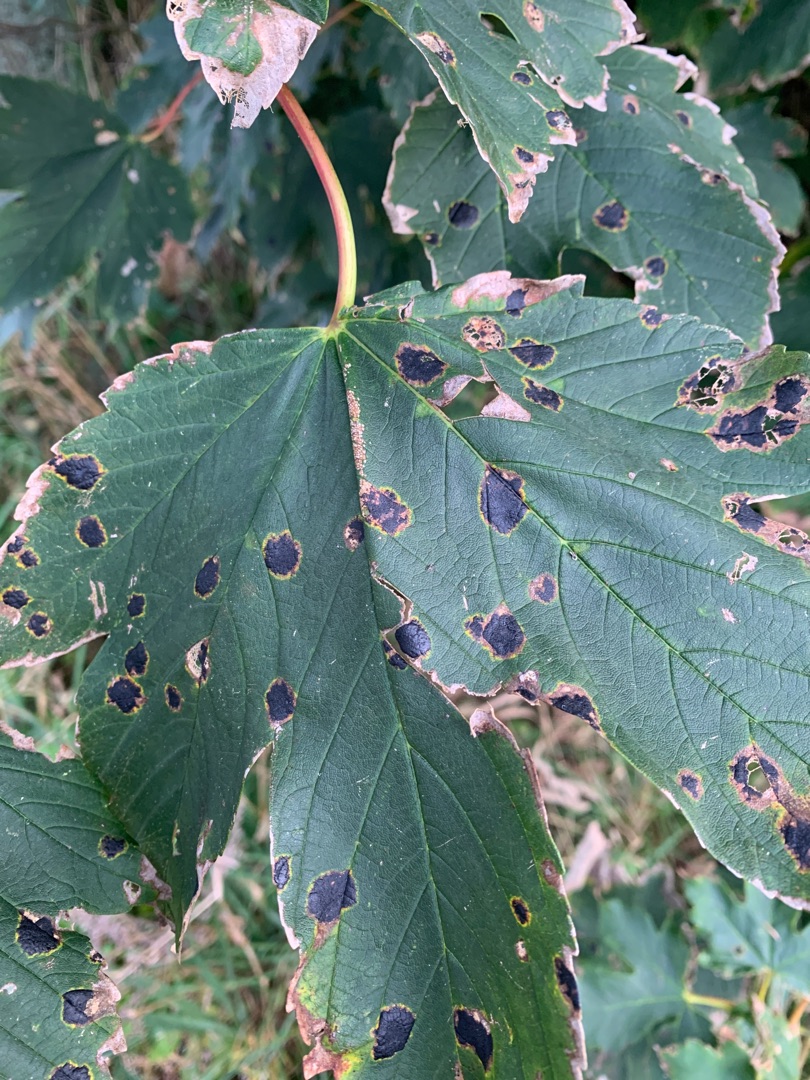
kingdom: Fungi
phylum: Ascomycota
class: Leotiomycetes
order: Rhytismatales
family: Rhytismataceae
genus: Rhytisma
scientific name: Rhytisma acerinum
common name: Ahorn-rynkeplet
